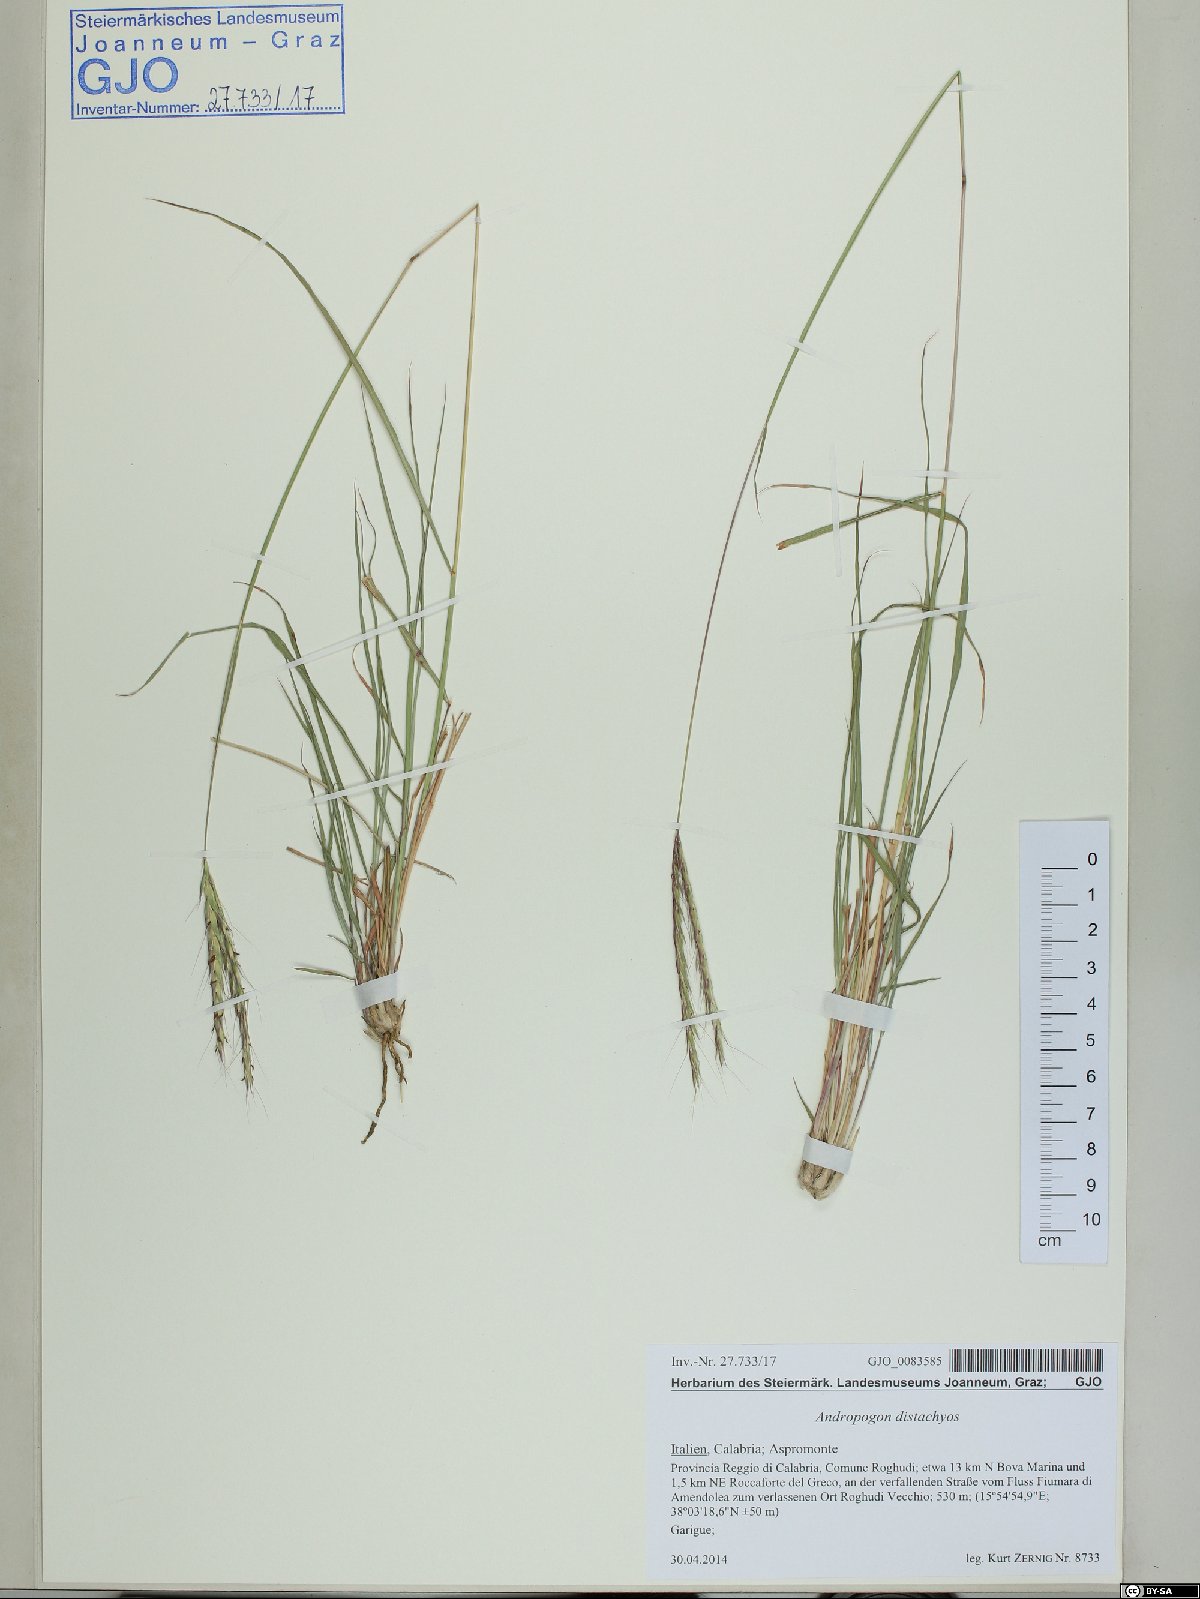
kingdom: Plantae
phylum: Tracheophyta
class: Liliopsida
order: Poales
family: Poaceae
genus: Andropogon
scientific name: Andropogon distachyos
